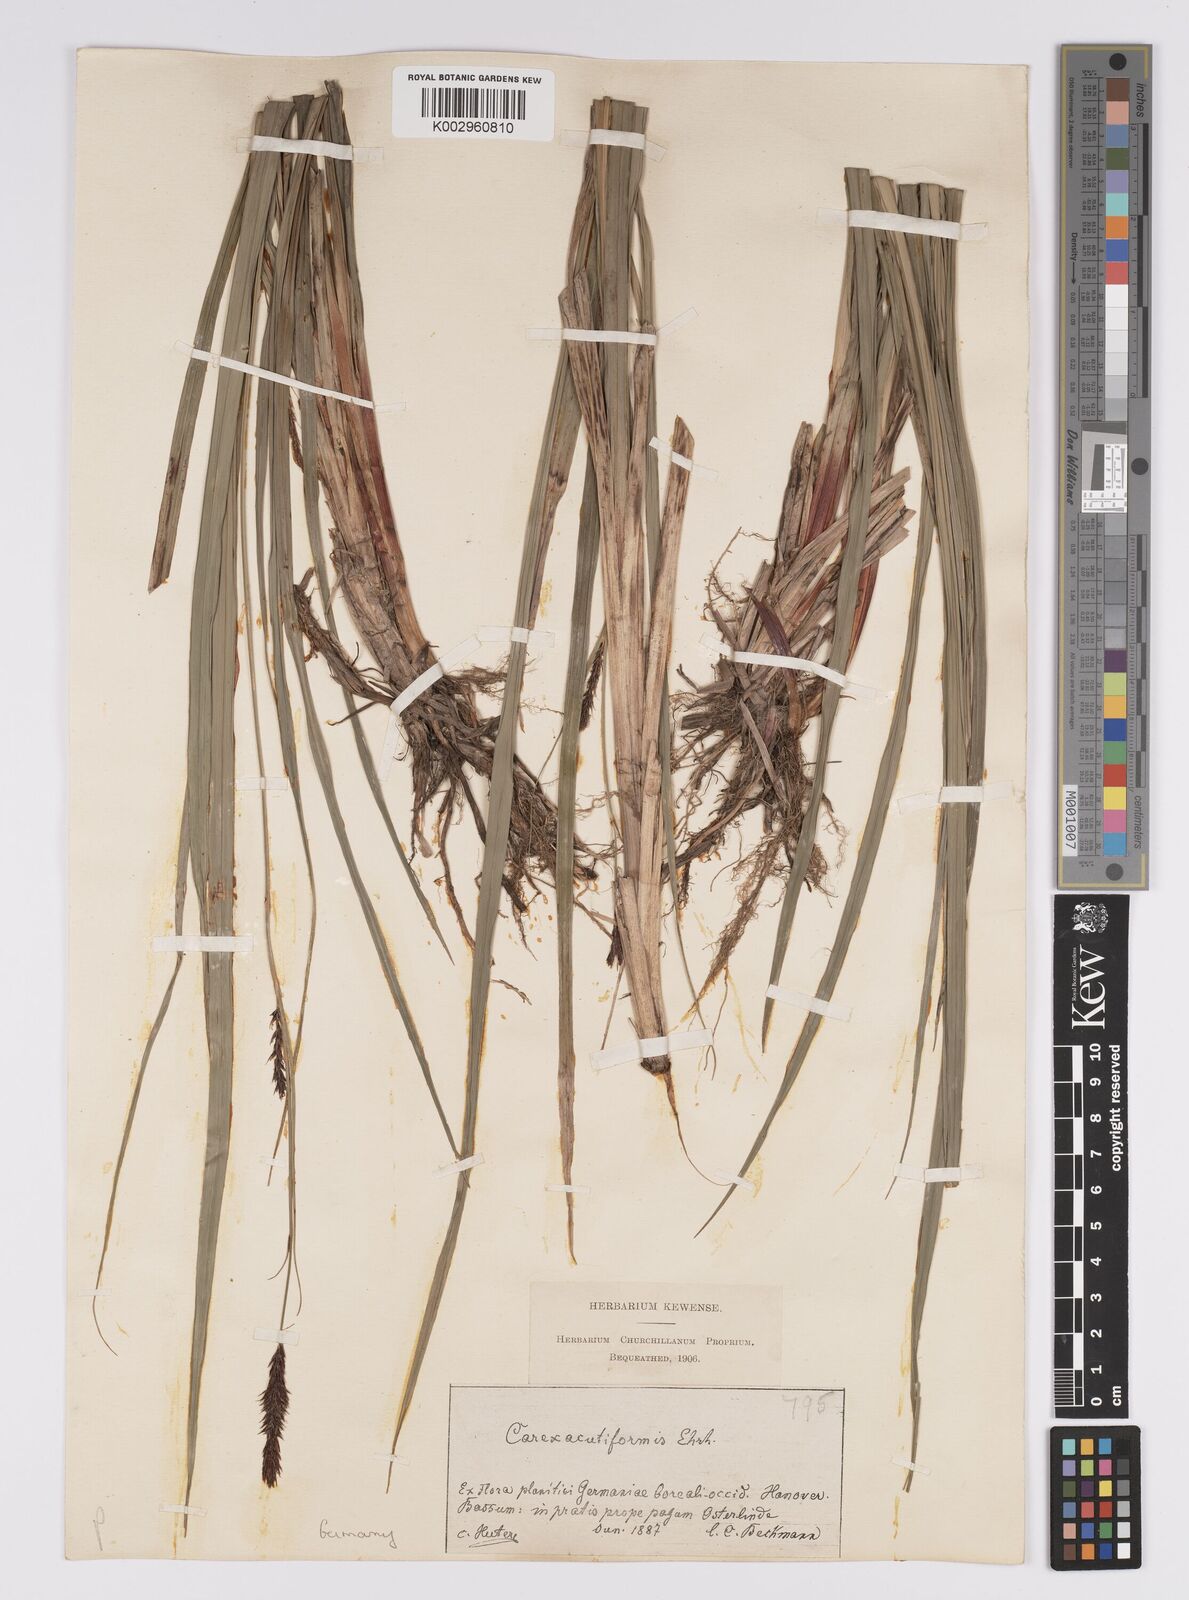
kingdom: Plantae
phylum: Tracheophyta
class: Liliopsida
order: Poales
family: Cyperaceae
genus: Carex
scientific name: Carex acutiformis
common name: Lesser pond-sedge
